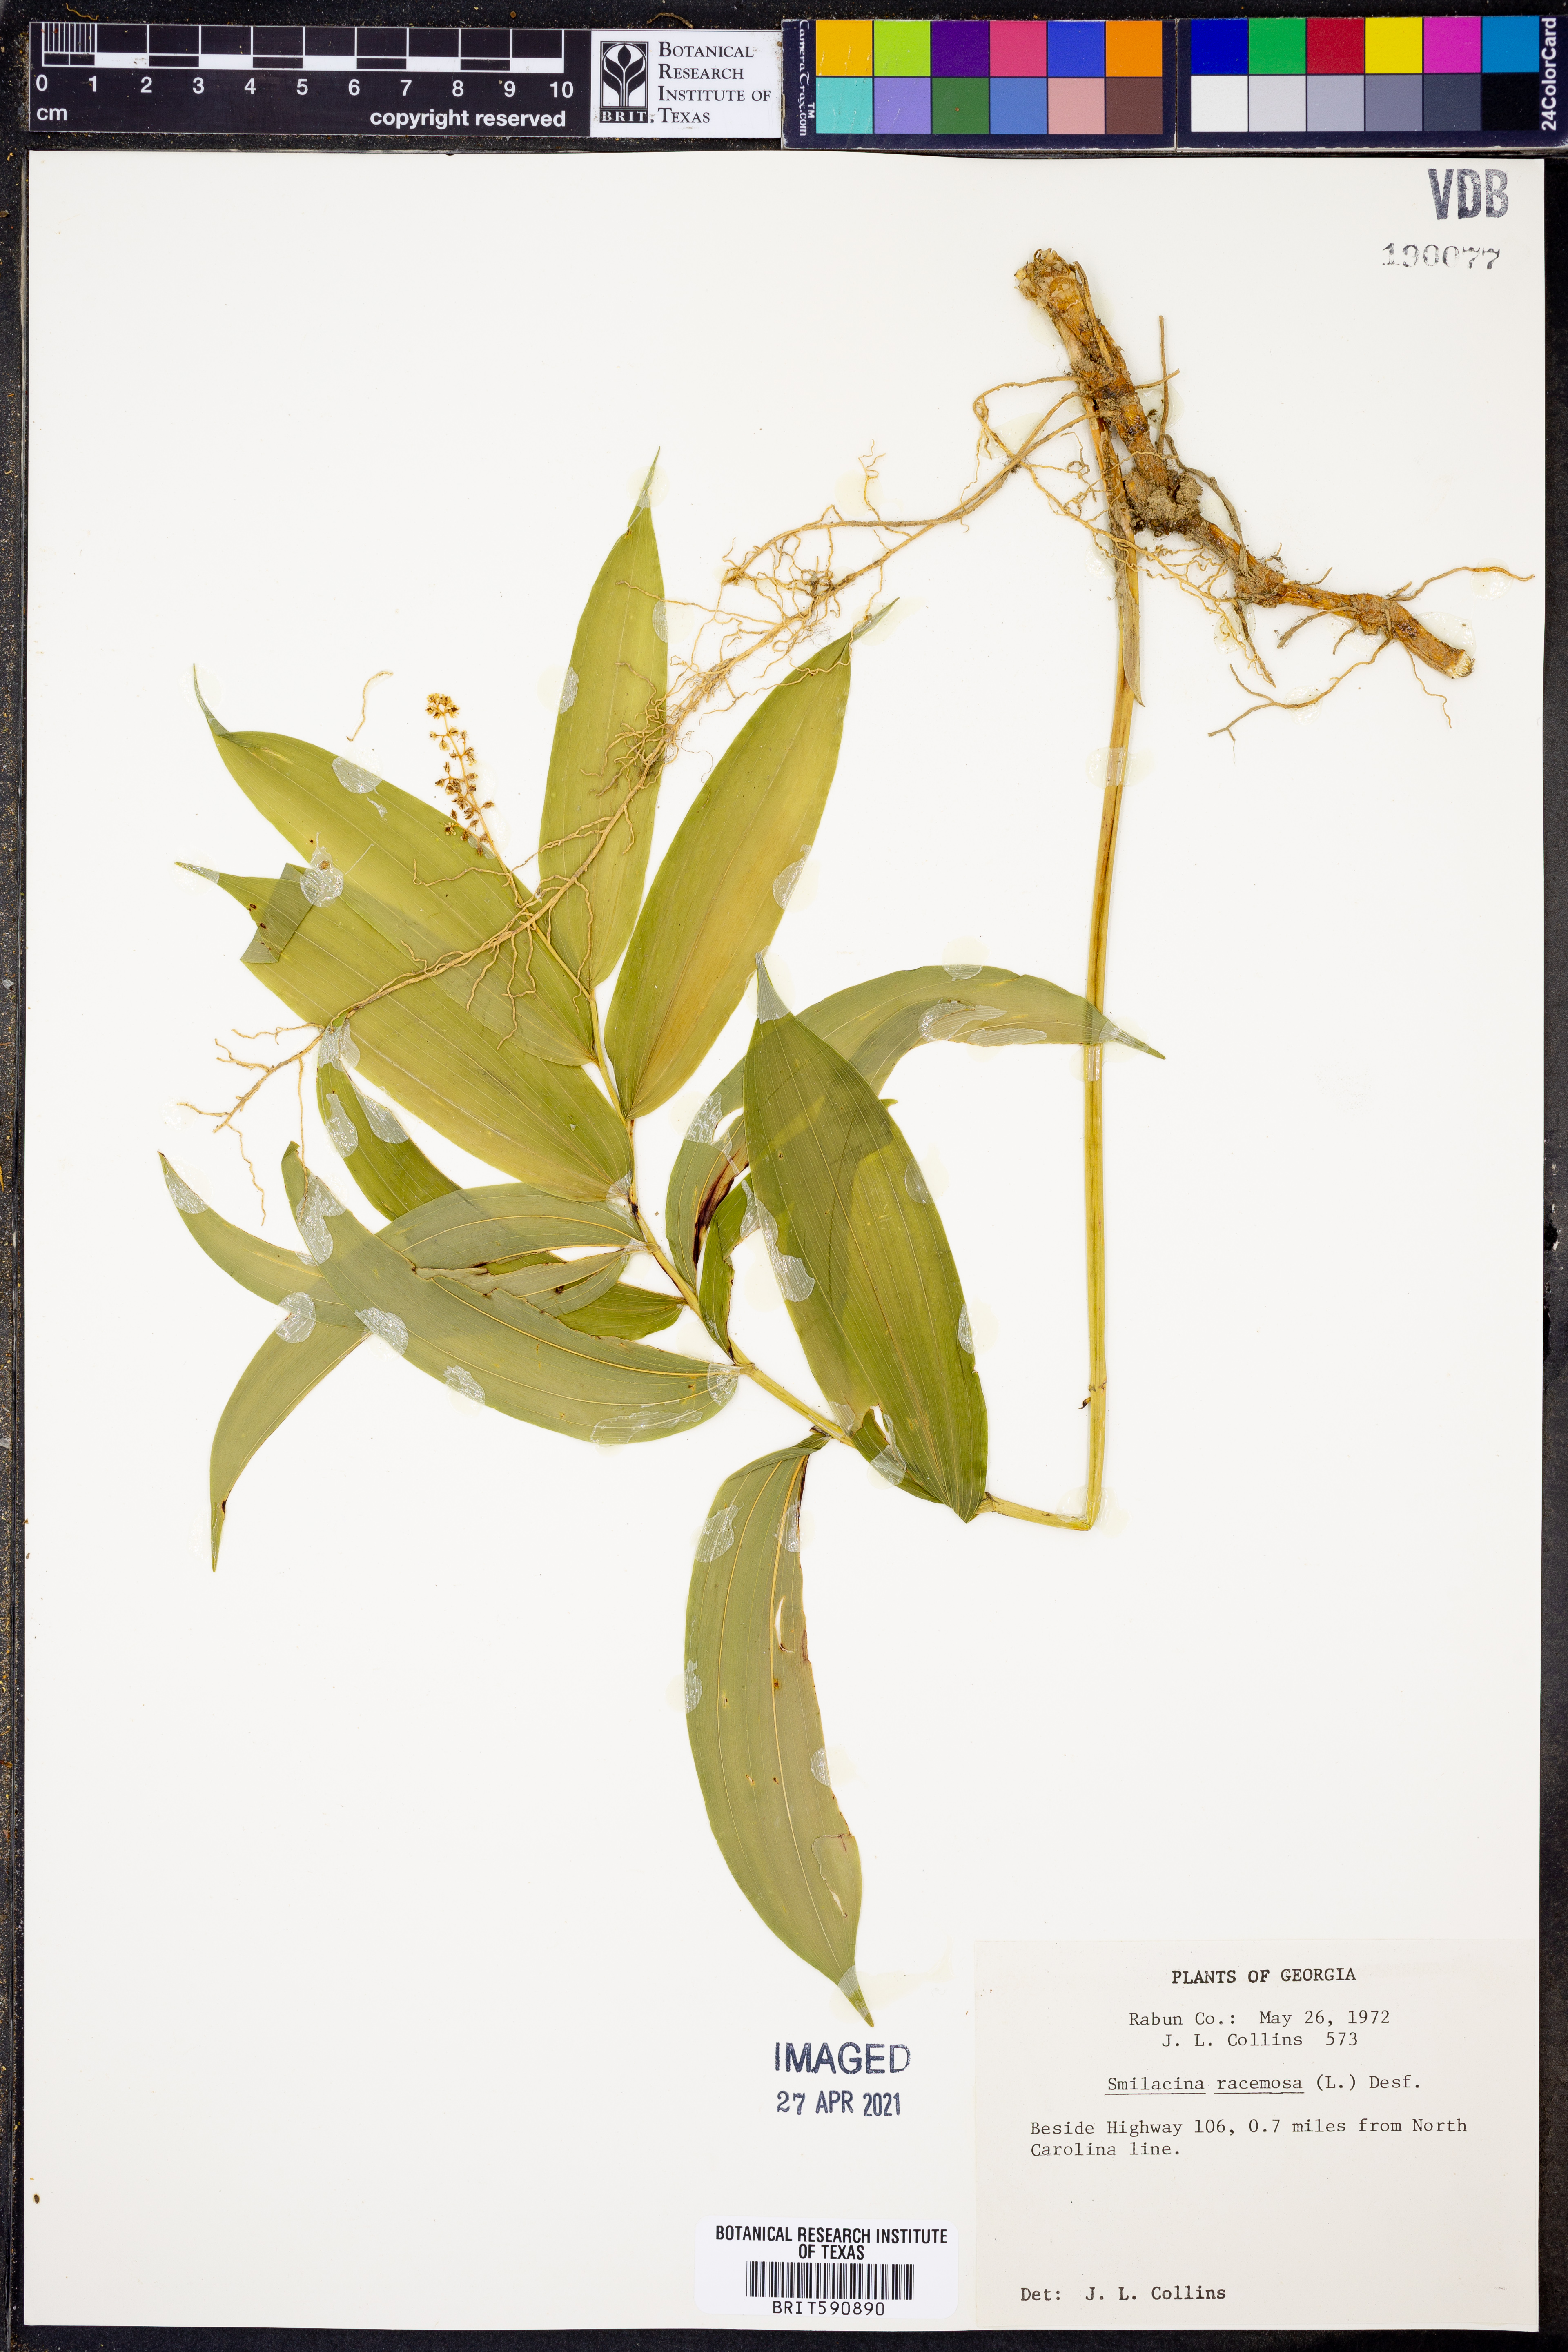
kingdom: Plantae
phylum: Tracheophyta
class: Liliopsida
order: Asparagales
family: Asparagaceae
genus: Maianthemum
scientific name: Maianthemum racemosum
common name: False spikenard
